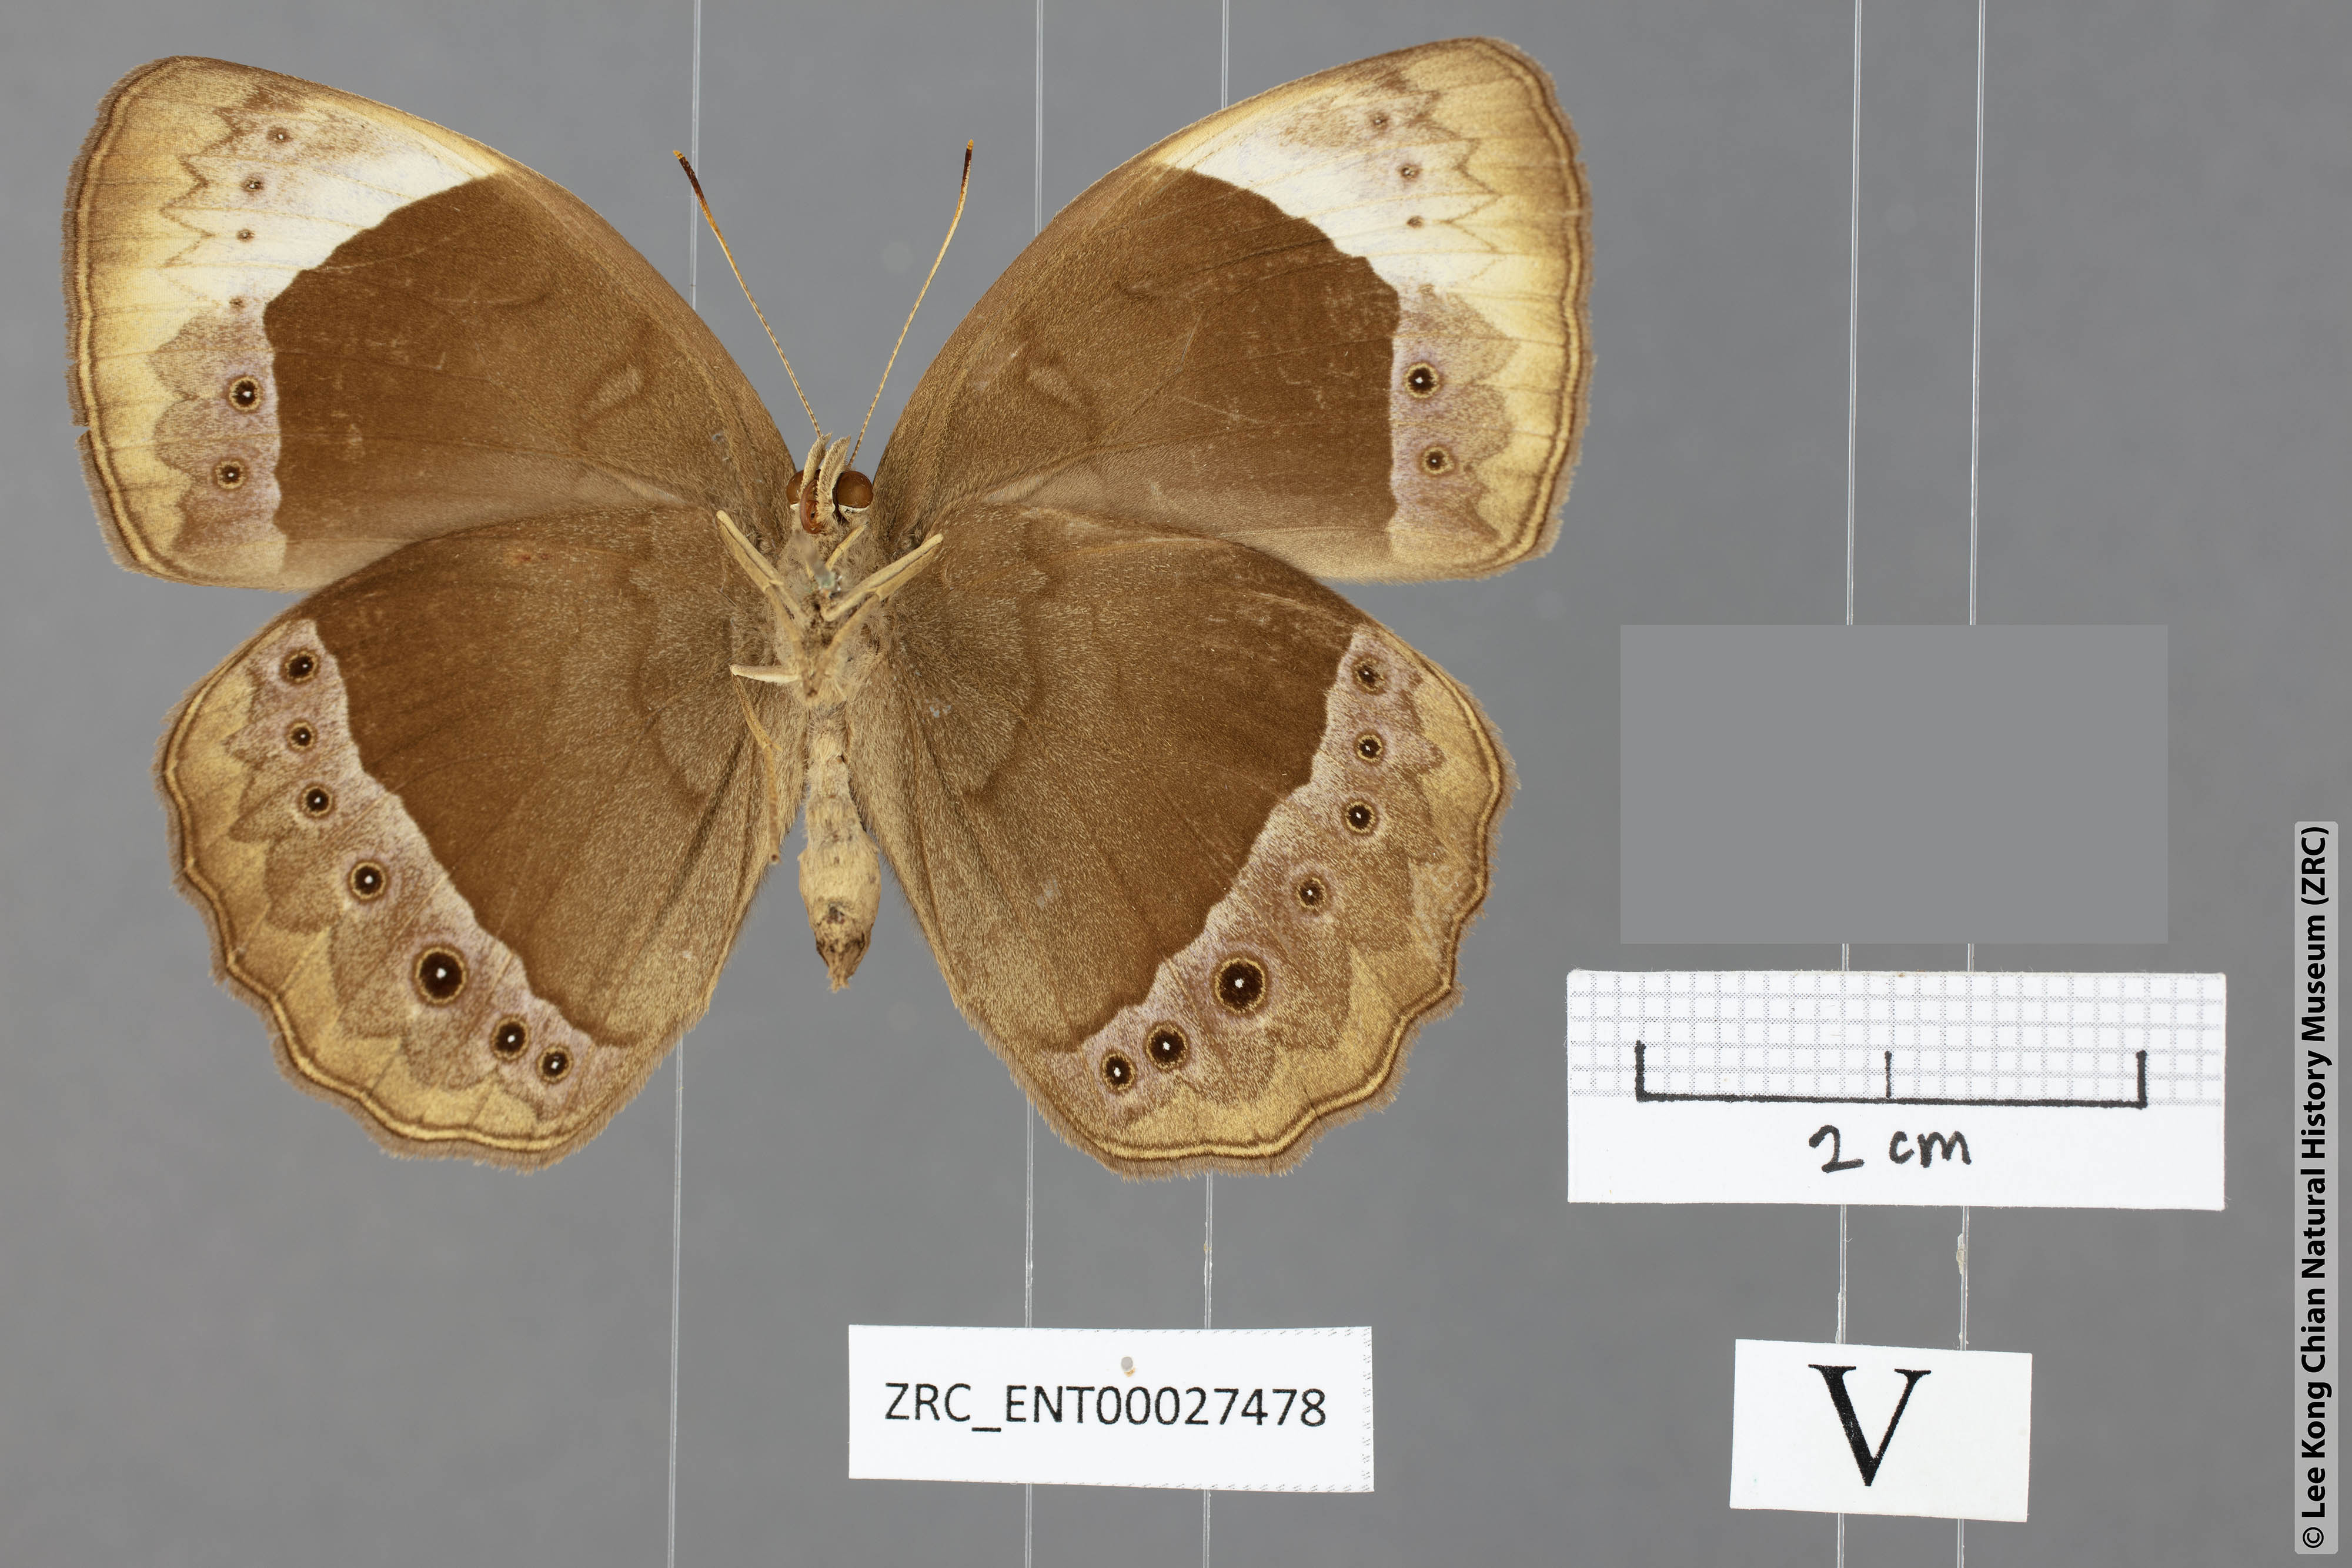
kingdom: Animalia
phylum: Arthropoda
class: Insecta
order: Lepidoptera
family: Nymphalidae
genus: Mycalesis
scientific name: Mycalesis anaxioides
